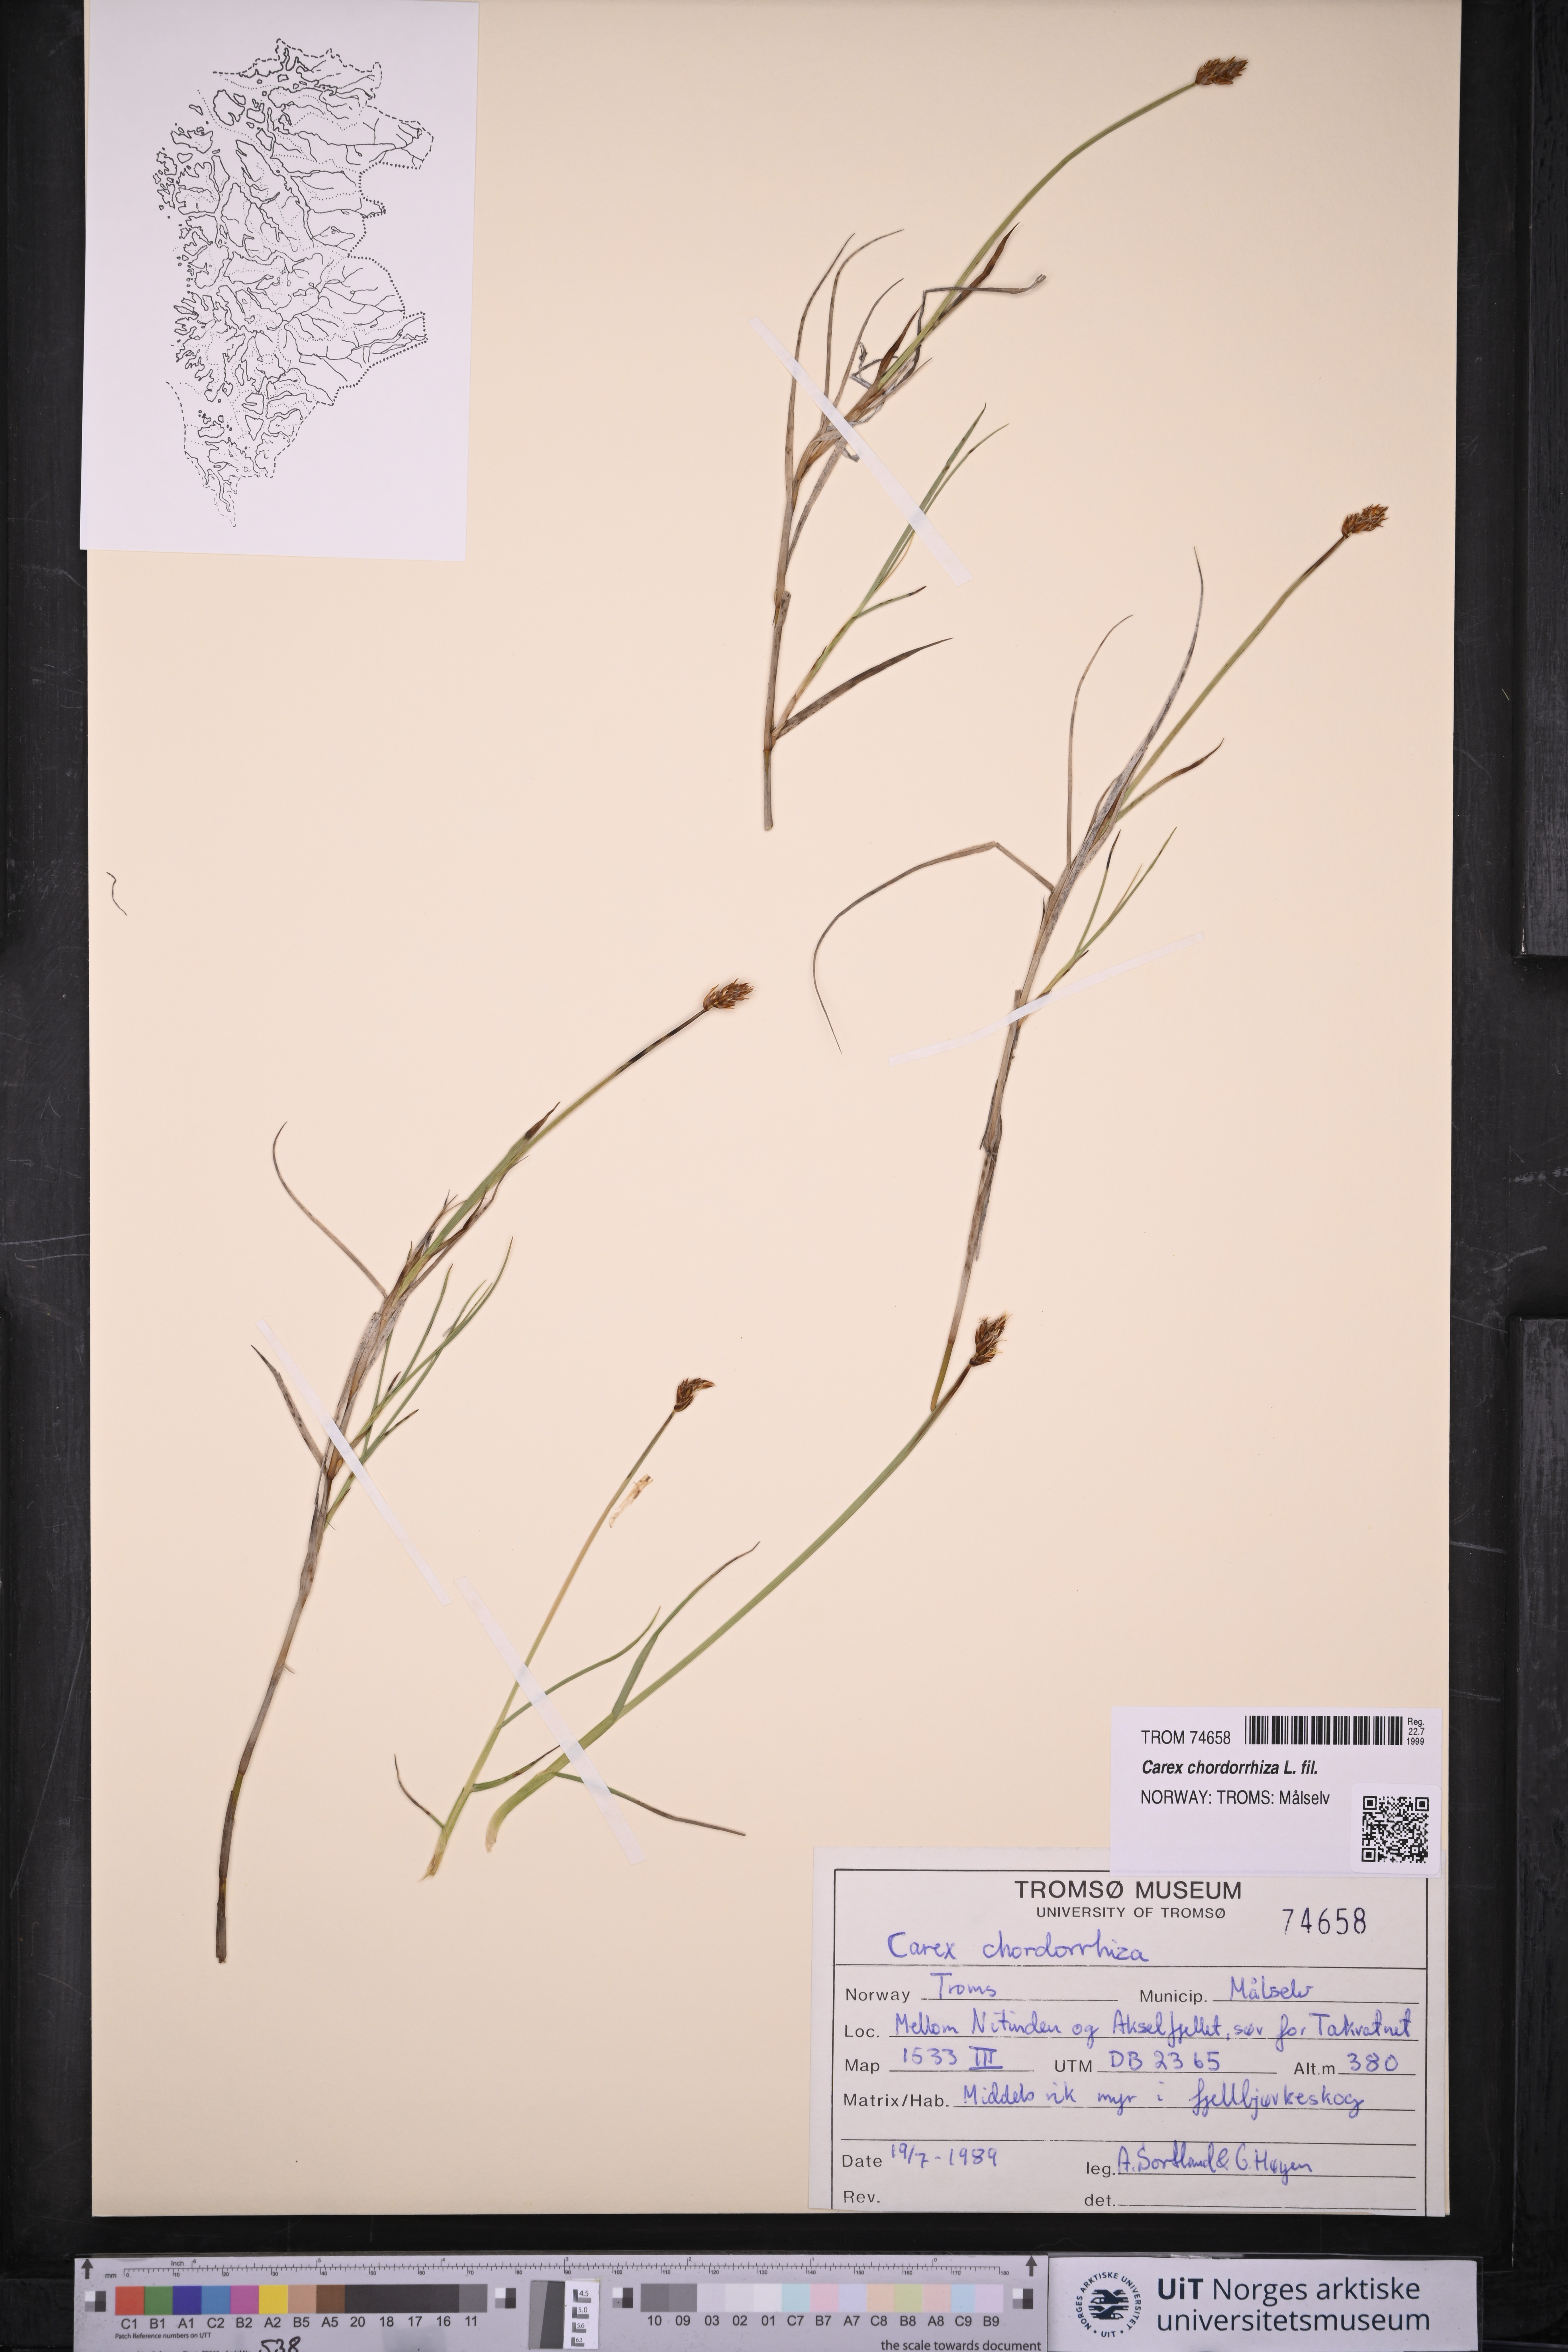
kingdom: Plantae
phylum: Tracheophyta
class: Liliopsida
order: Poales
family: Cyperaceae
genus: Carex
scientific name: Carex chordorrhiza
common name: String sedge
